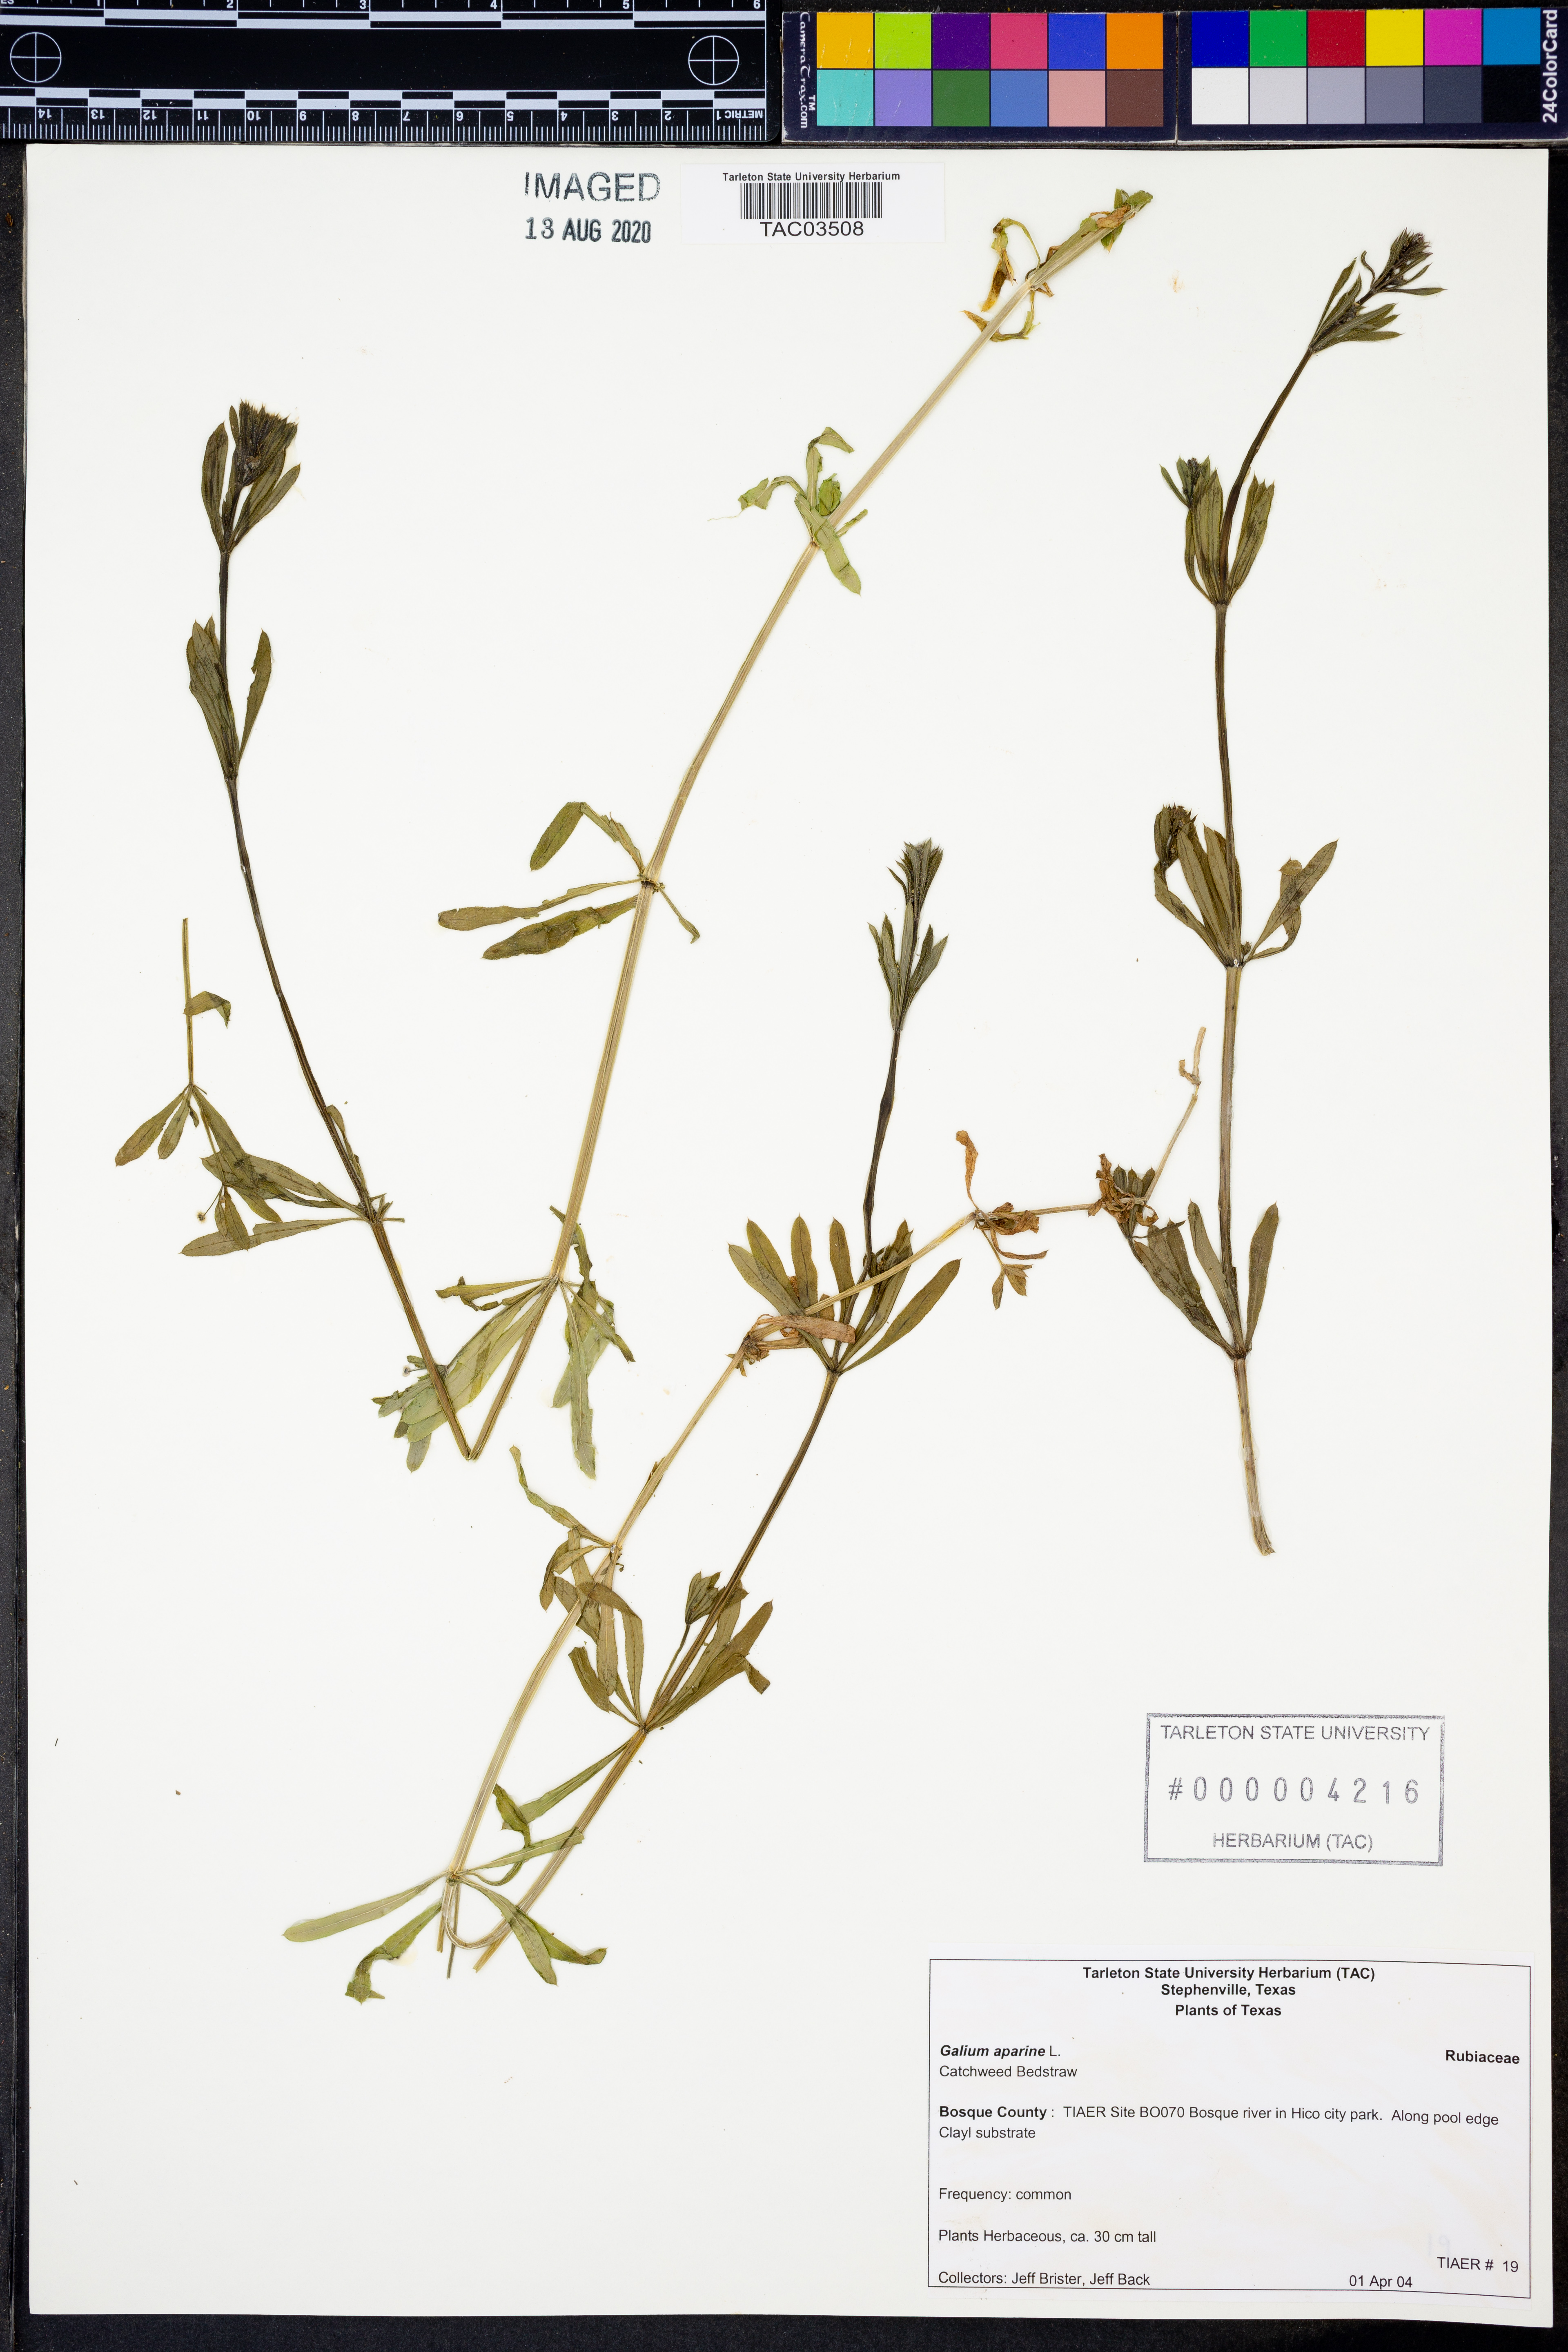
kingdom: Plantae
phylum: Tracheophyta
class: Magnoliopsida
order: Gentianales
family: Rubiaceae
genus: Galium
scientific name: Galium aparine
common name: Cleavers
